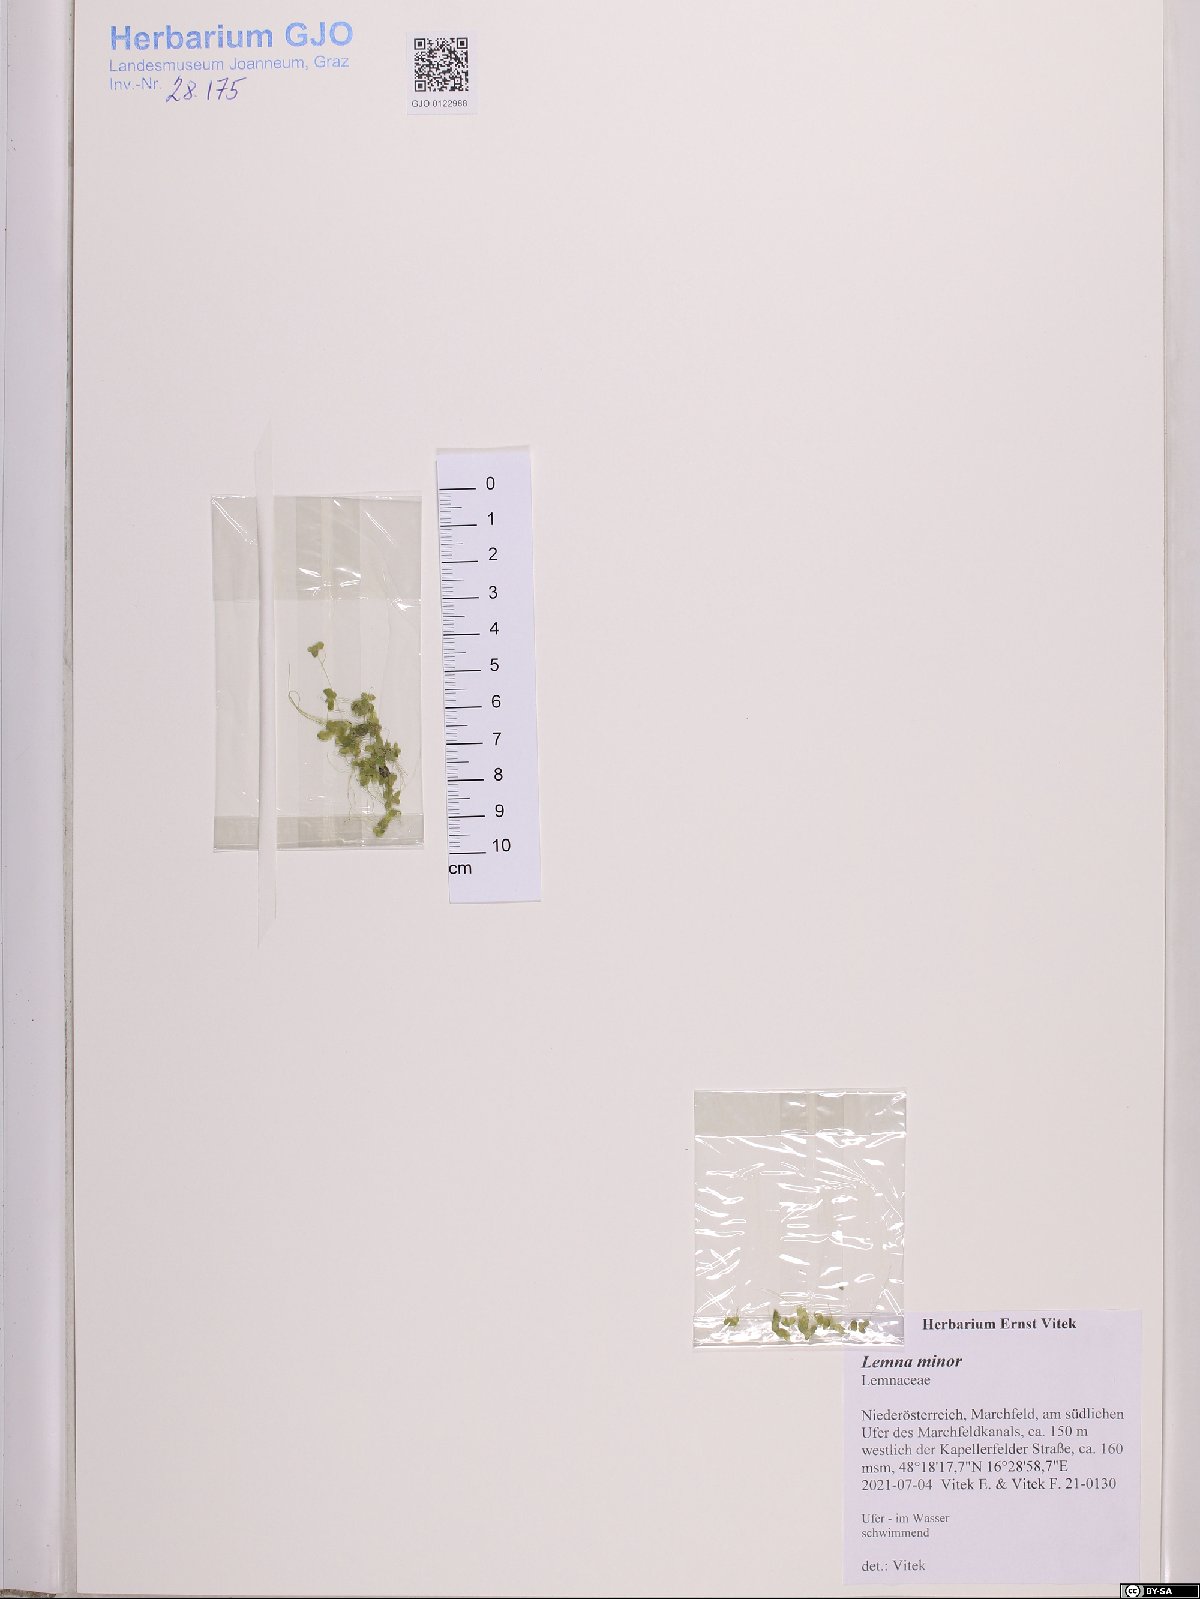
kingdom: Plantae
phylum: Tracheophyta
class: Liliopsida
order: Alismatales
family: Araceae
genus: Lemna
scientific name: Lemna minor
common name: Common duckweed
